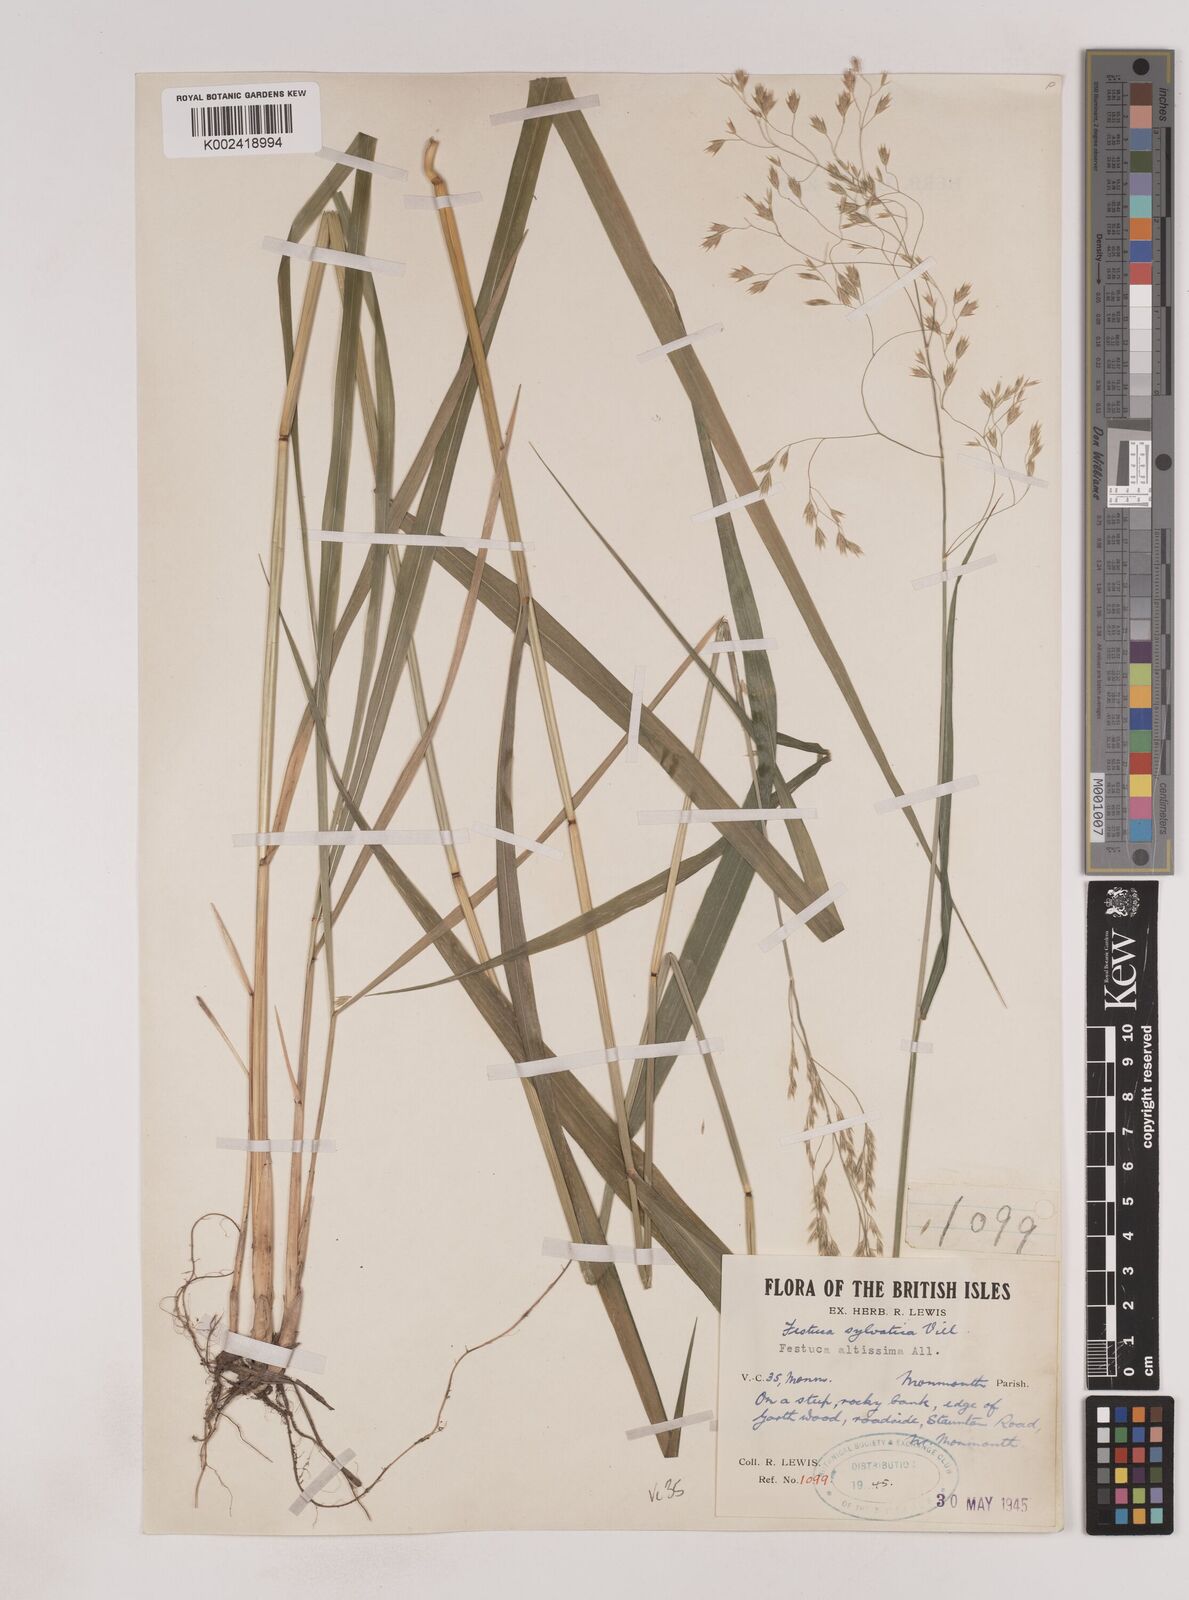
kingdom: Plantae
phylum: Tracheophyta
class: Liliopsida
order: Poales
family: Poaceae
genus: Festuca
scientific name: Festuca drymeja
